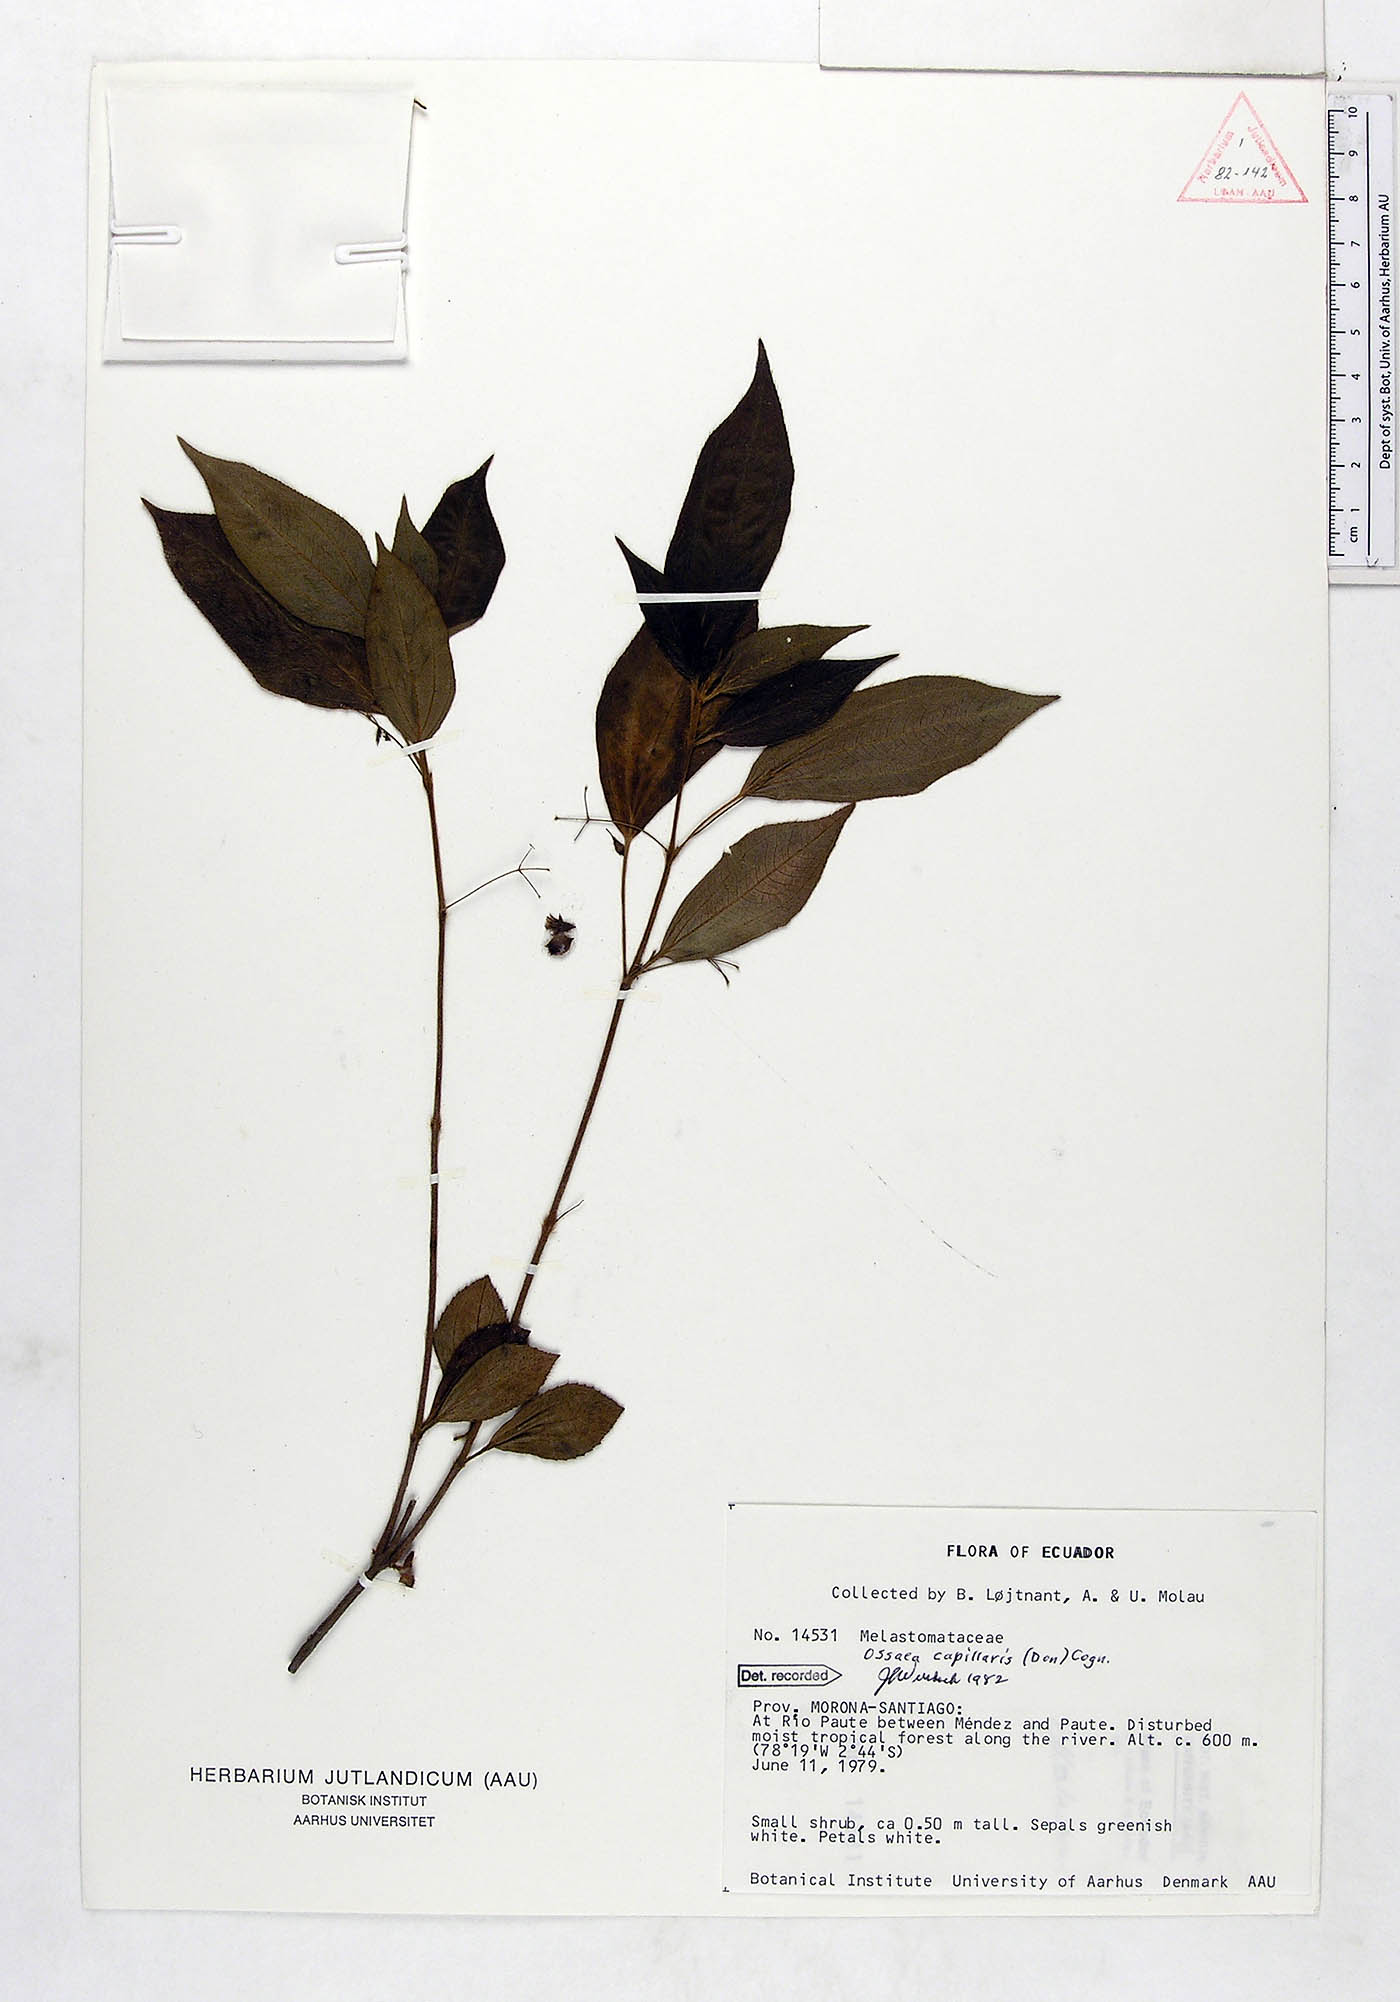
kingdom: Plantae
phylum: Tracheophyta
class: Magnoliopsida
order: Myrtales
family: Melastomataceae
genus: Miconia
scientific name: Miconia leptopus
